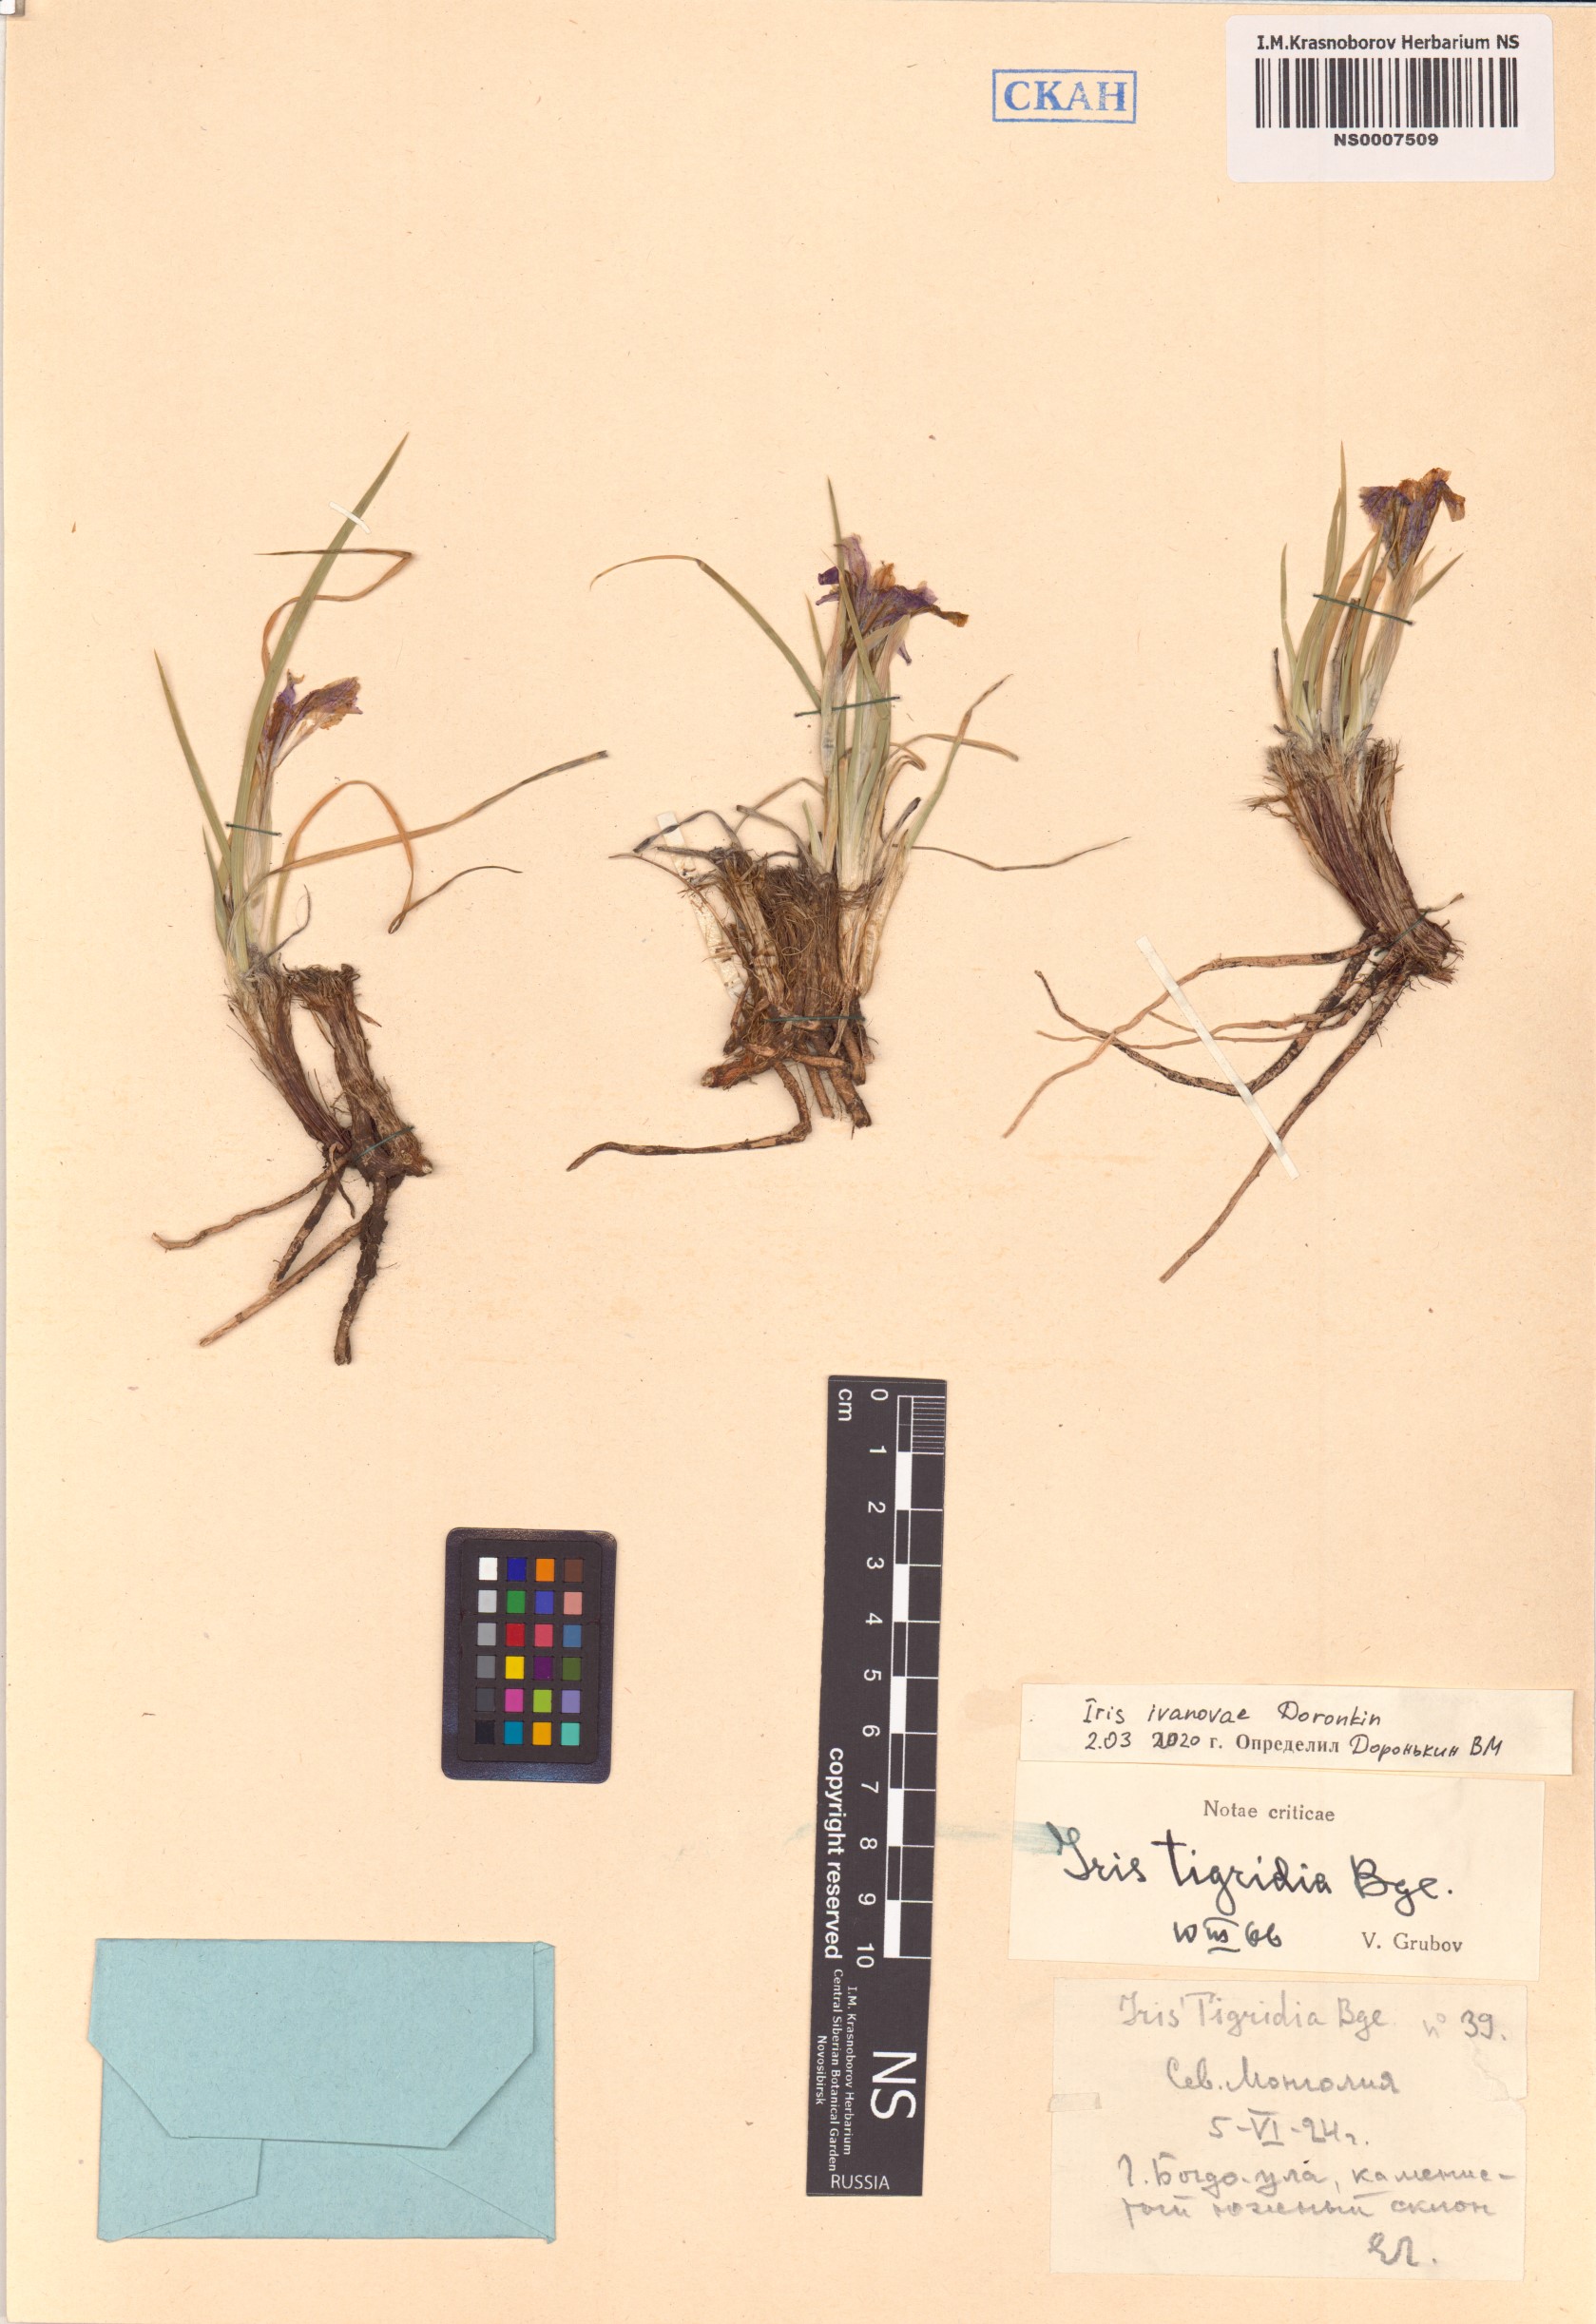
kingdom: Plantae
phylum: Tracheophyta
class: Liliopsida
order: Asparagales
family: Iridaceae
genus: Iris
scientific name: Iris ivanovae
